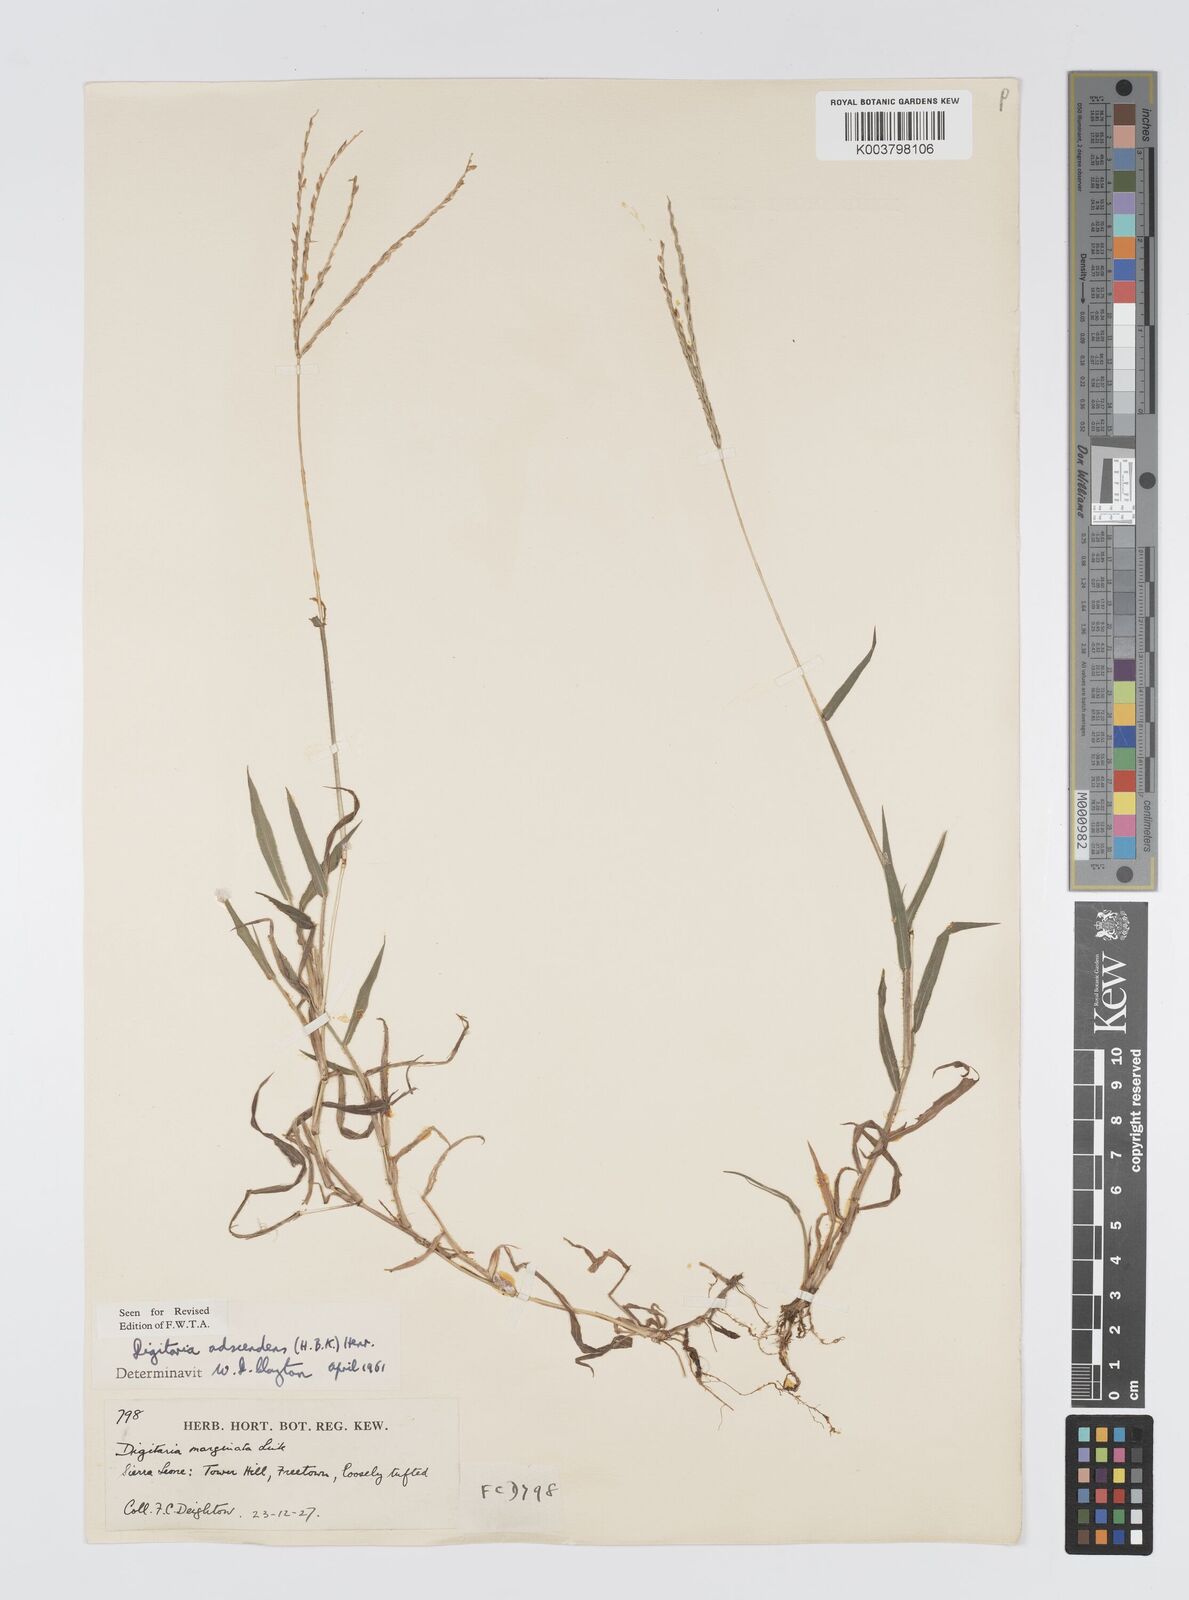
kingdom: Plantae
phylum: Tracheophyta
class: Liliopsida
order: Poales
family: Poaceae
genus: Digitaria
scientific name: Digitaria
